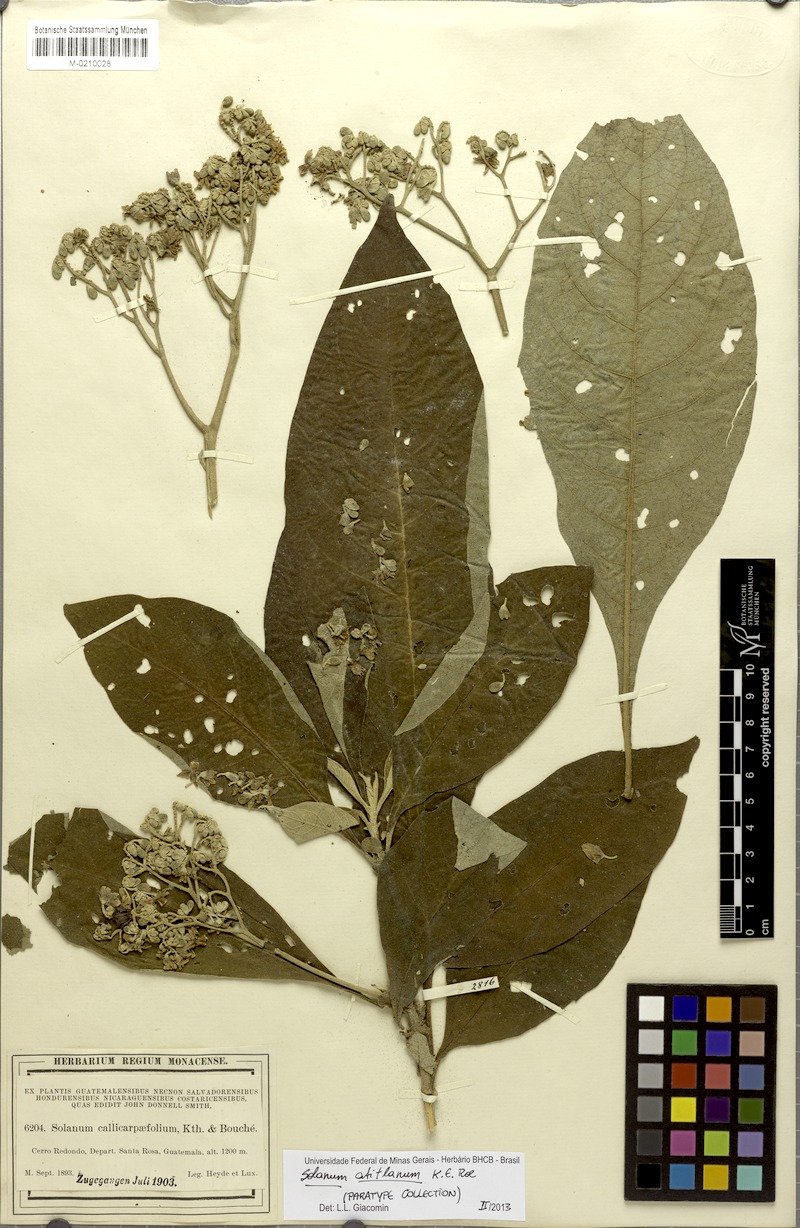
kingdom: Plantae
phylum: Tracheophyta
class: Magnoliopsida
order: Solanales
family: Solanaceae
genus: Solanum
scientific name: Solanum atitlanum
